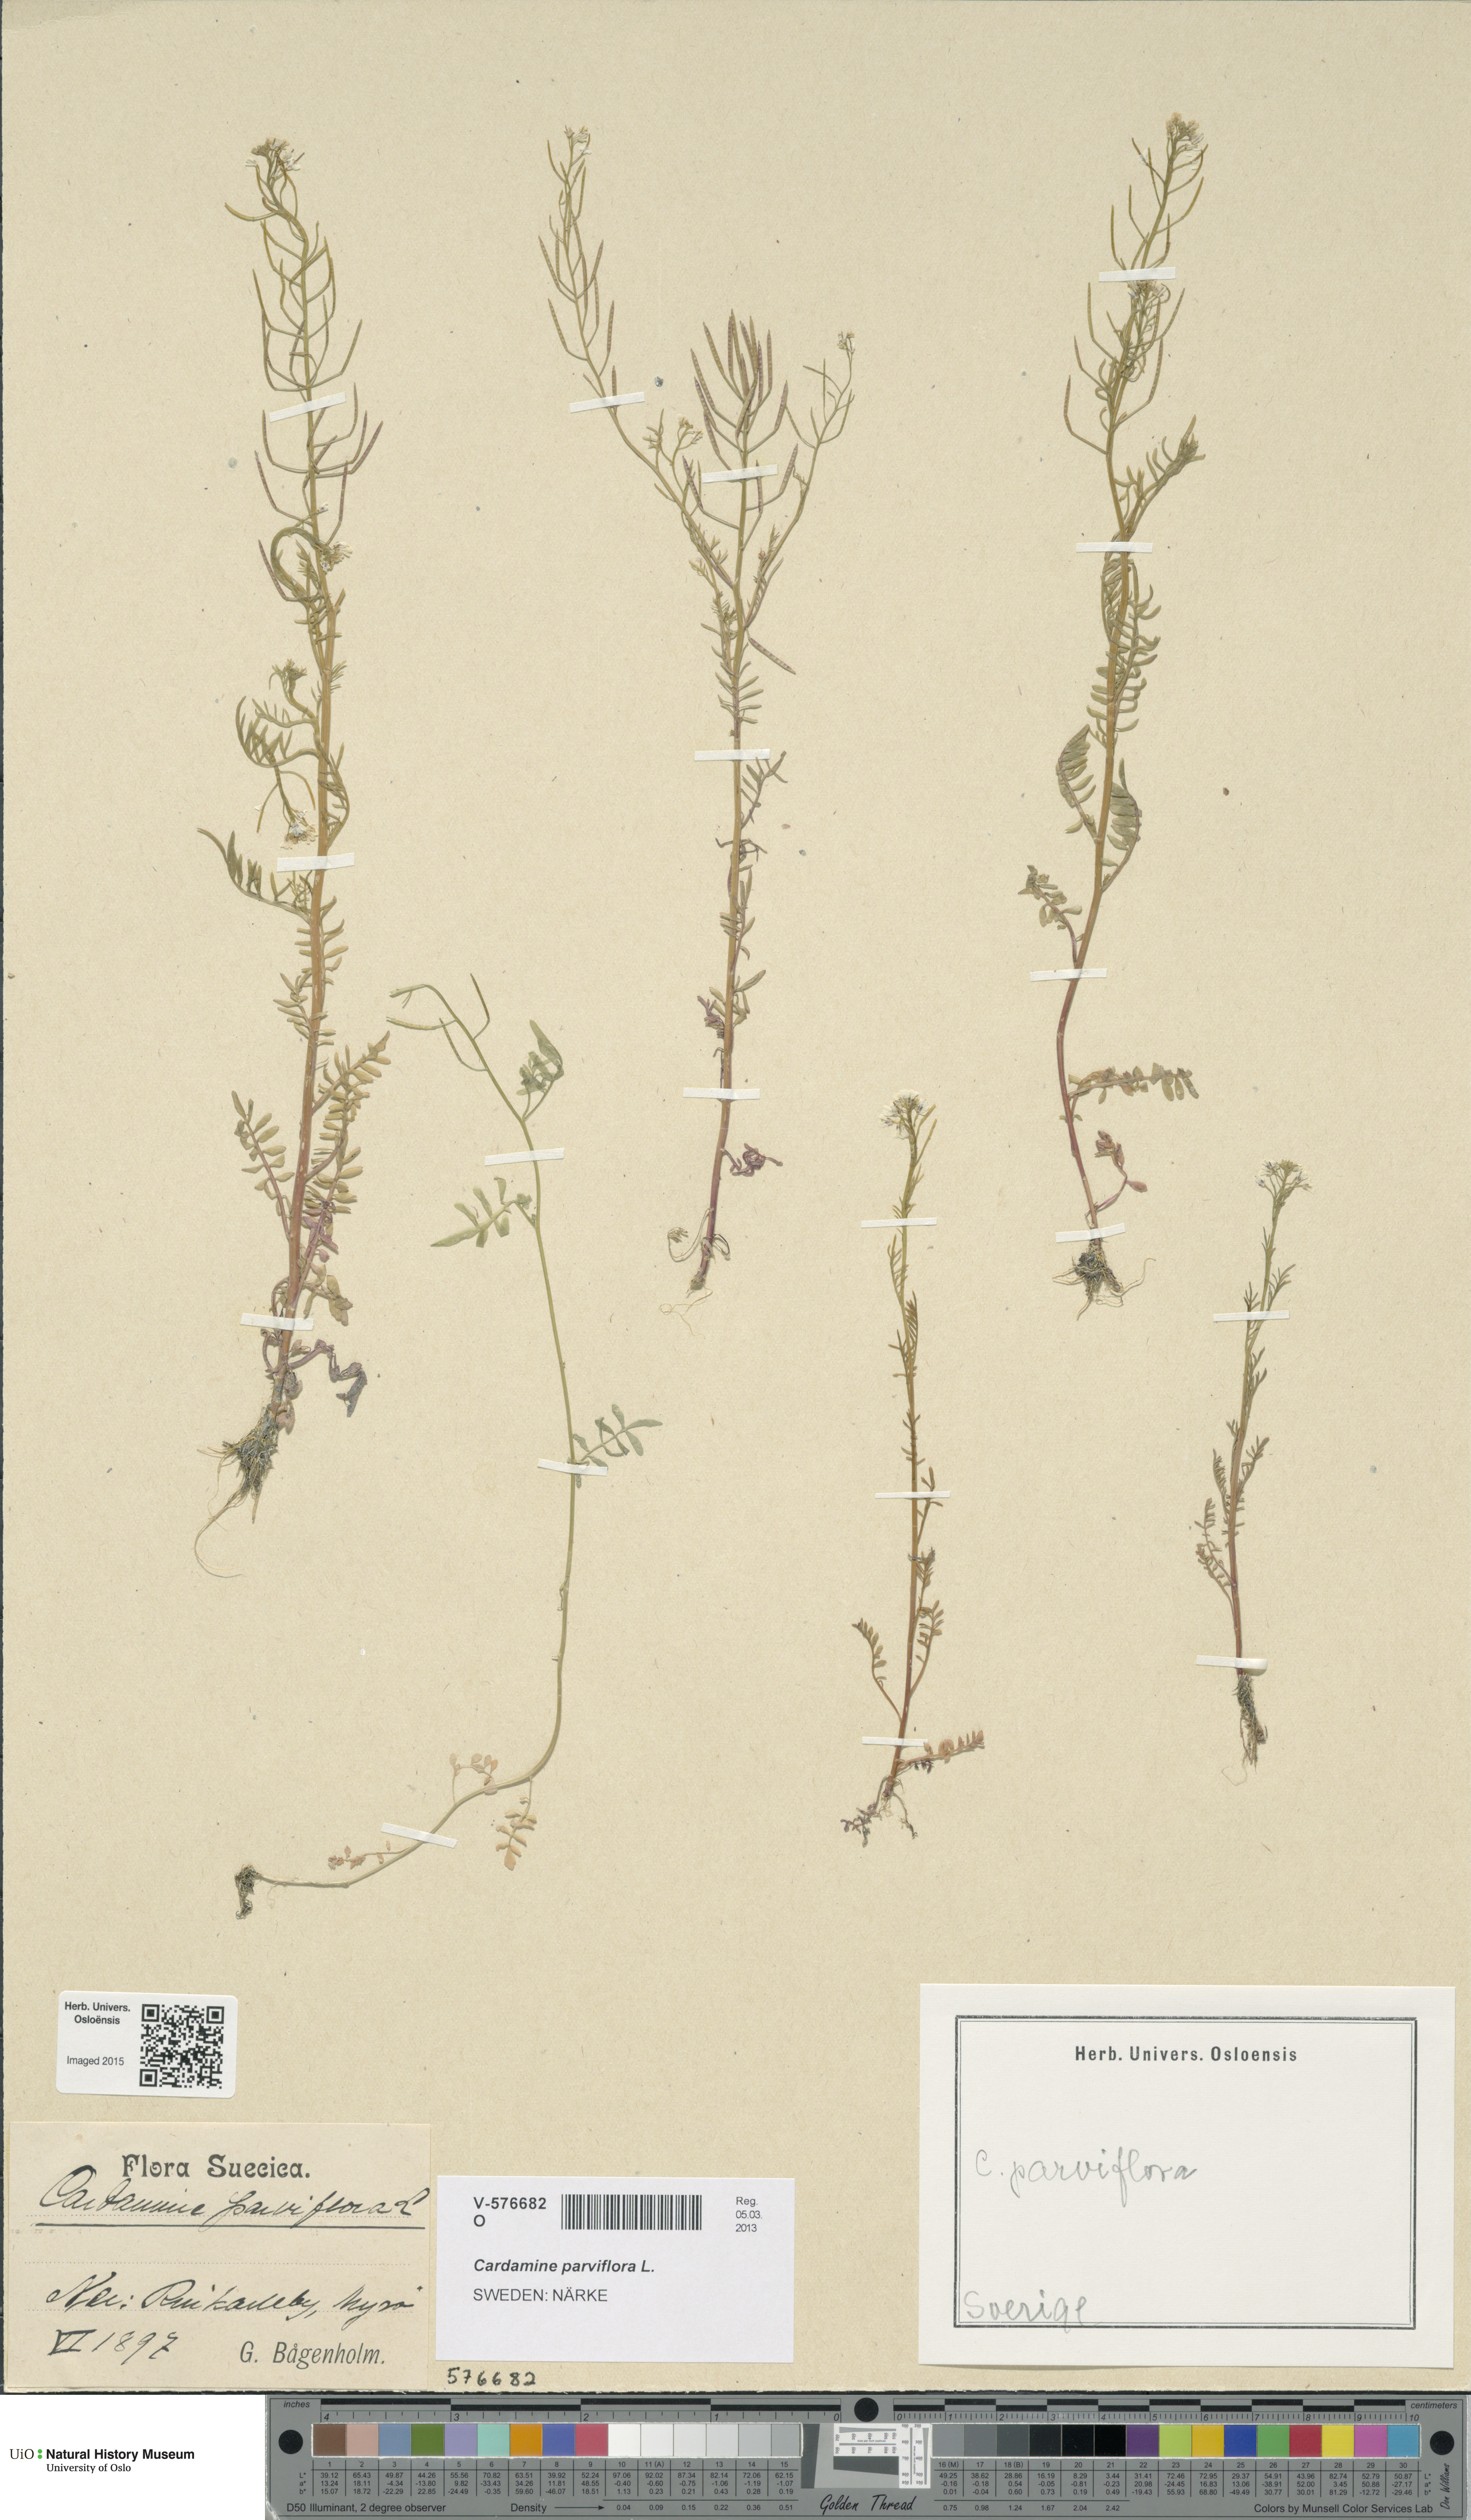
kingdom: Plantae
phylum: Tracheophyta
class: Magnoliopsida
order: Brassicales
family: Brassicaceae
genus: Cardamine
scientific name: Cardamine parviflora
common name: Sand bittercress
